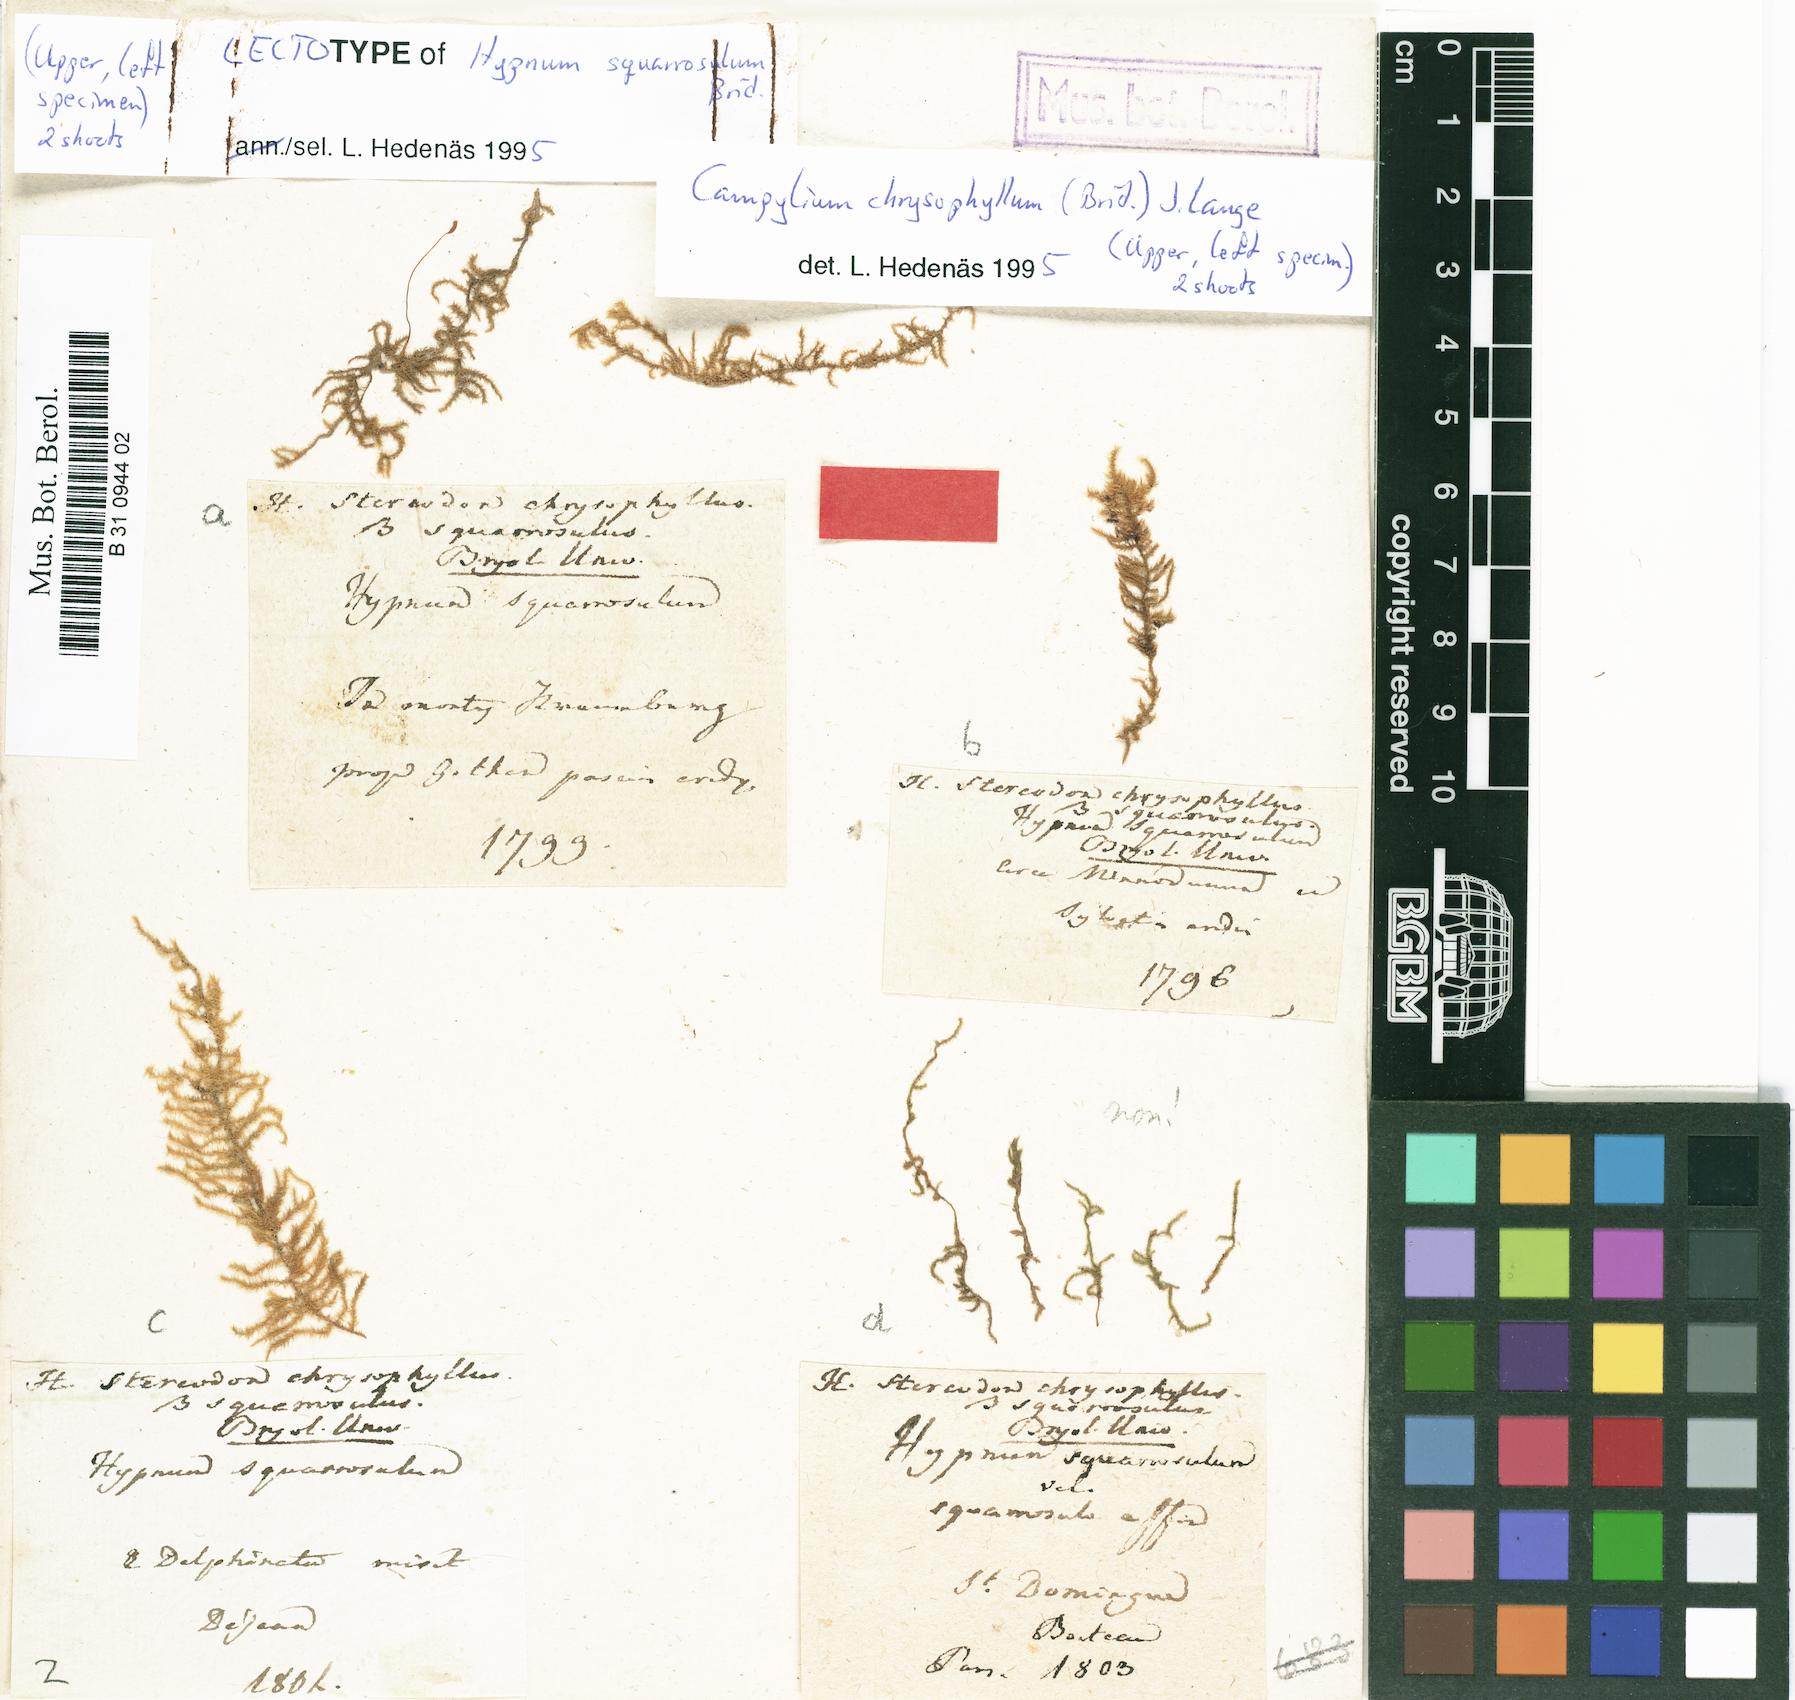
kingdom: Plantae
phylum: Bryophyta
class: Bryopsida
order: Hypnales
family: Amblystegiaceae
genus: Campylium
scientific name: Campylium chrysophyllum
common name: Goldenleaf campylium moss
